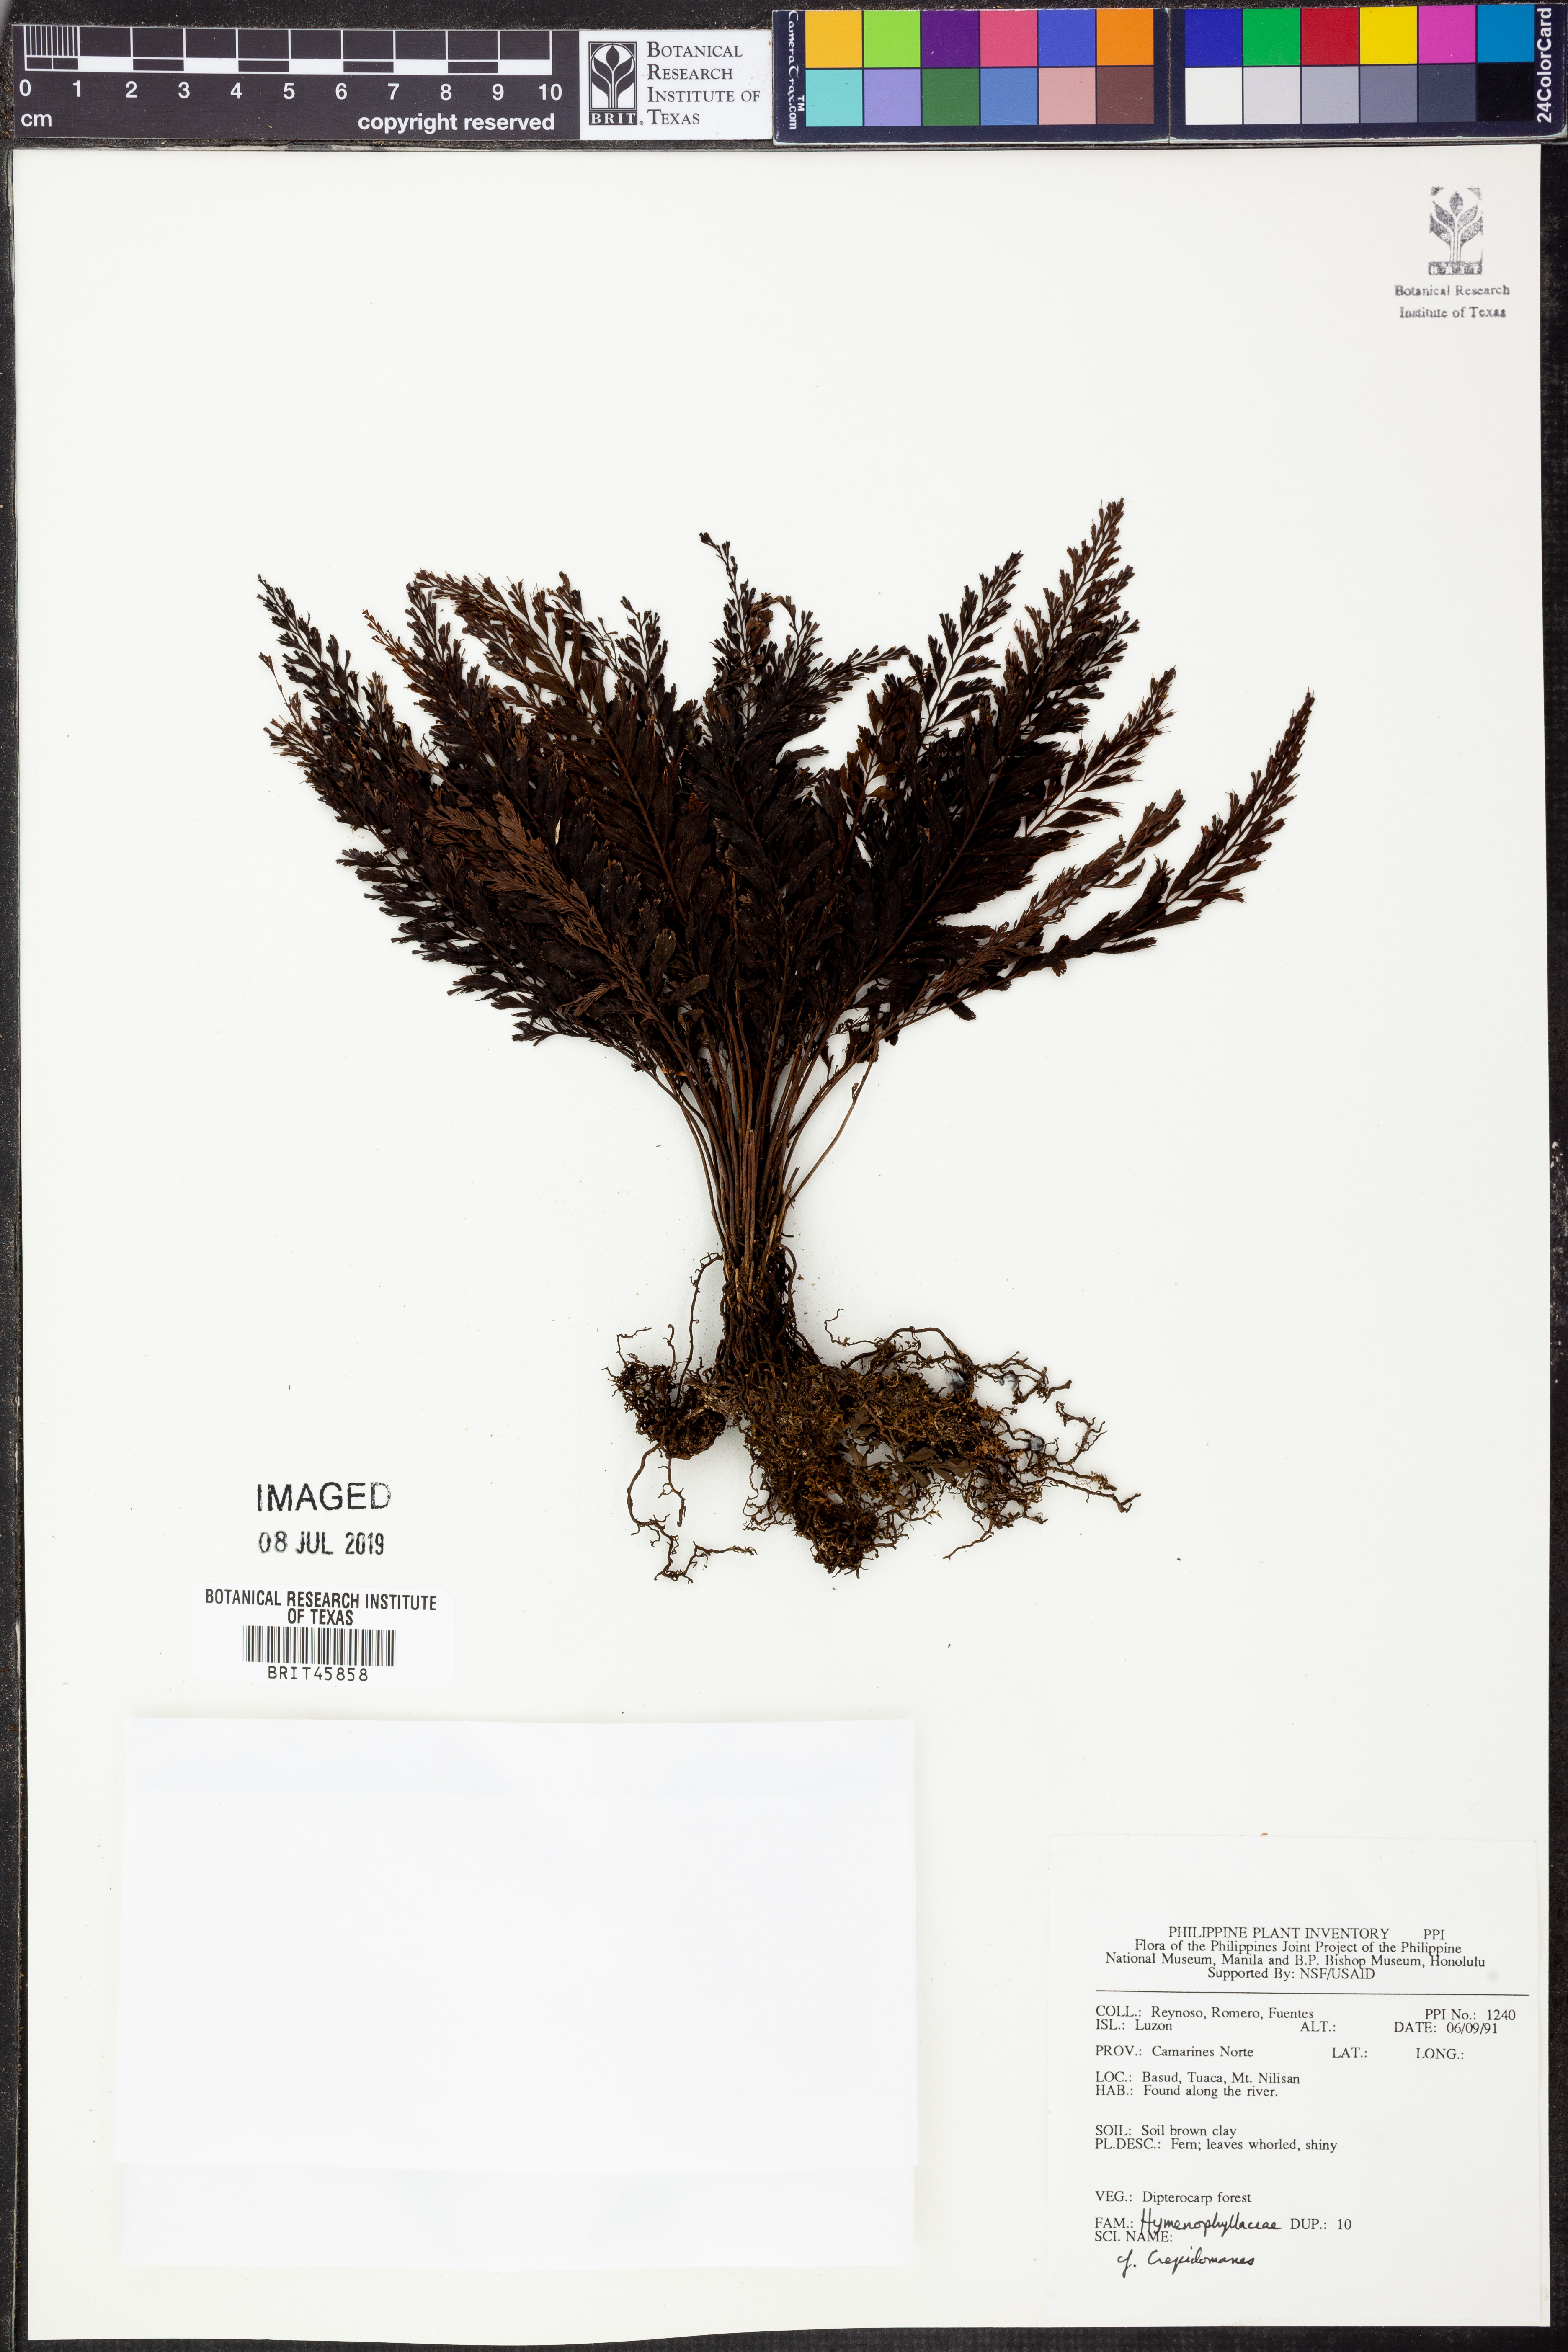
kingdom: Plantae
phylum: Tracheophyta
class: Polypodiopsida
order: Hymenophyllales
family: Hymenophyllaceae
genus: Crepidomanes
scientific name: Crepidomanes
